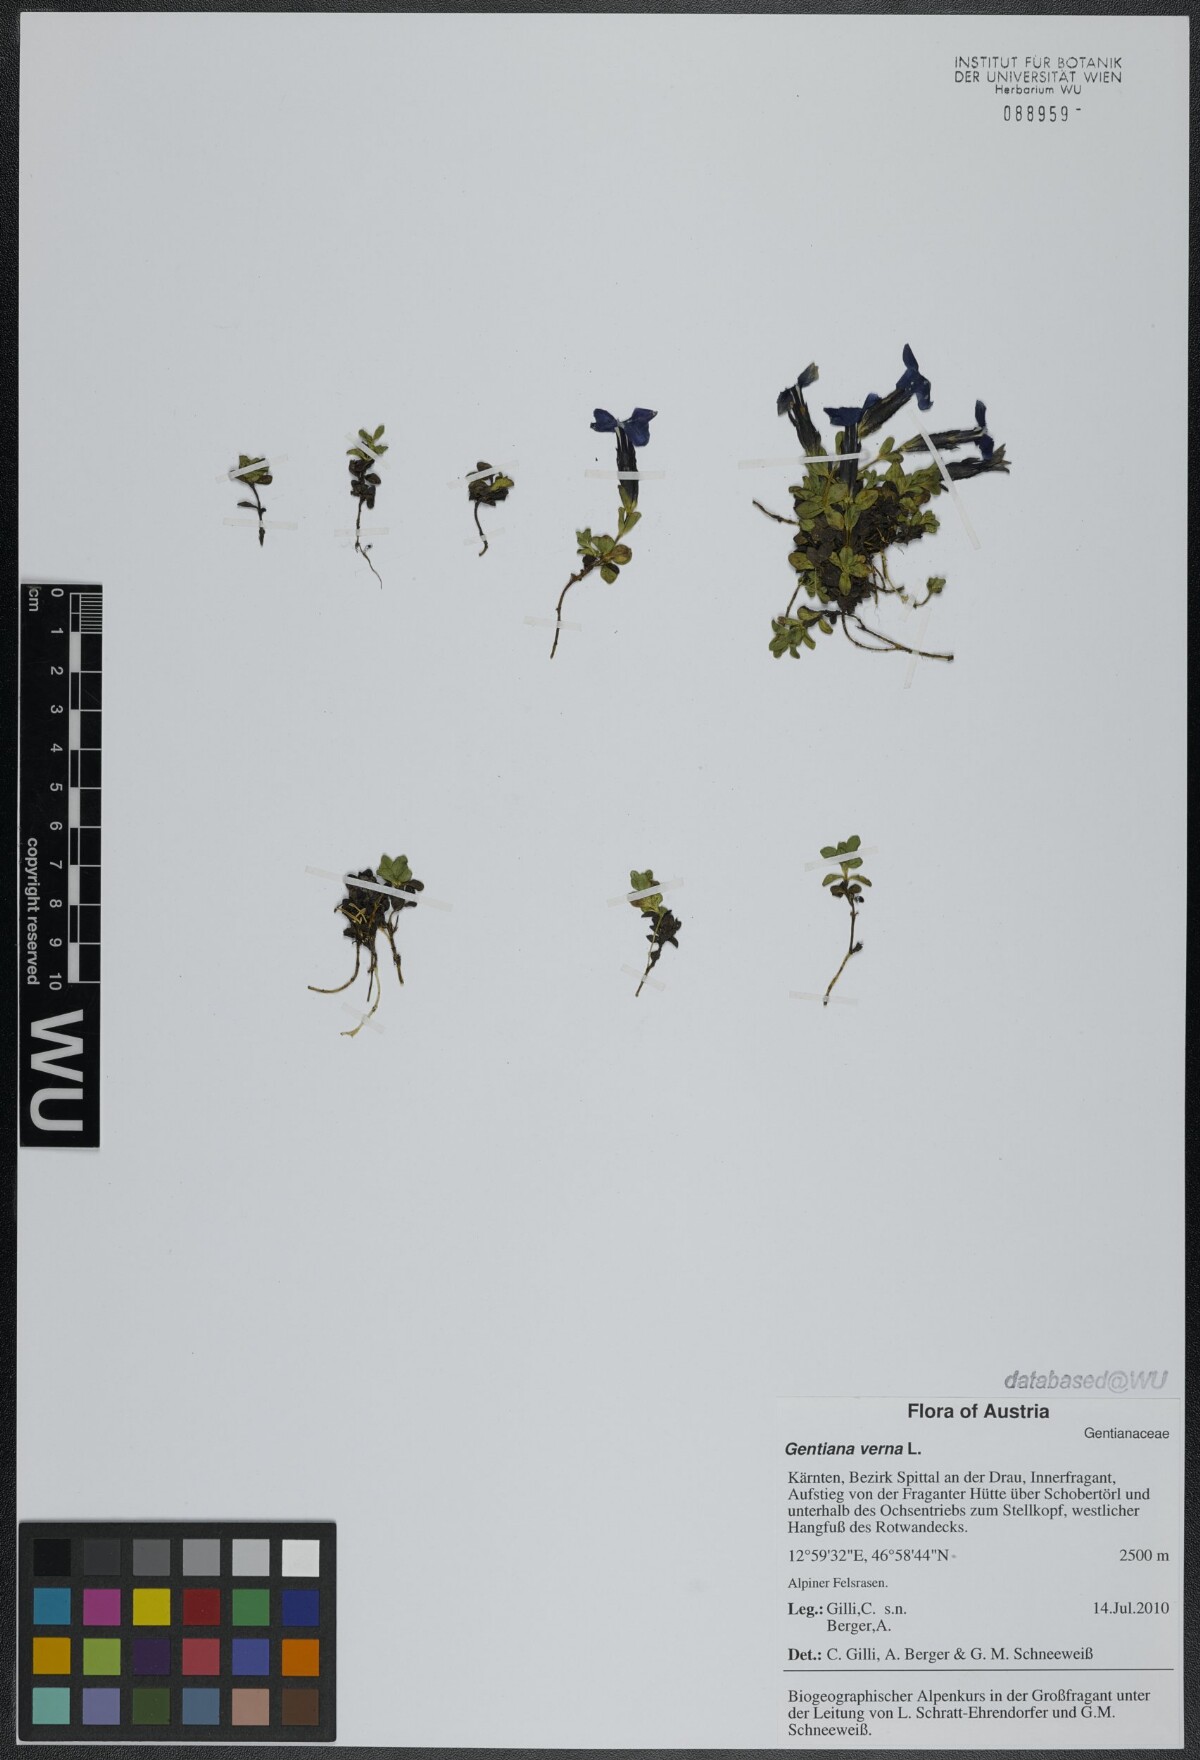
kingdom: Plantae
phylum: Tracheophyta
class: Magnoliopsida
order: Gentianales
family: Gentianaceae
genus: Gentiana
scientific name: Gentiana verna
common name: Spring gentian
